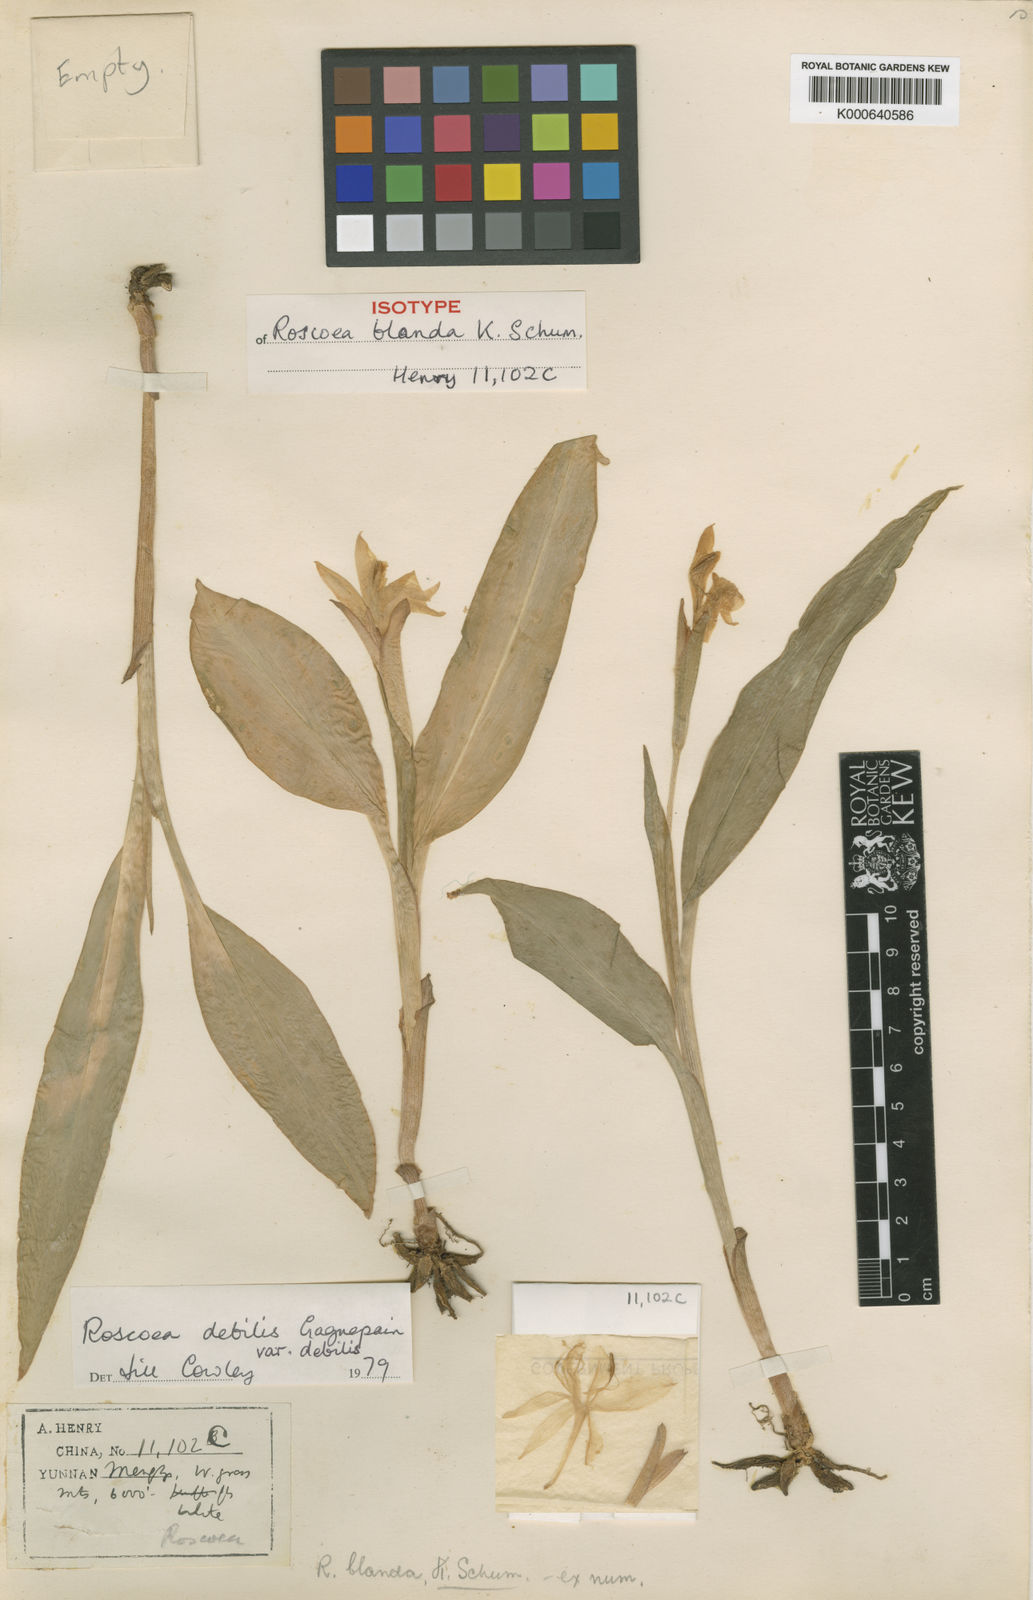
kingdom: Plantae
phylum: Tracheophyta
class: Liliopsida
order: Zingiberales
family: Zingiberaceae
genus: Roscoea
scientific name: Roscoea debilis
